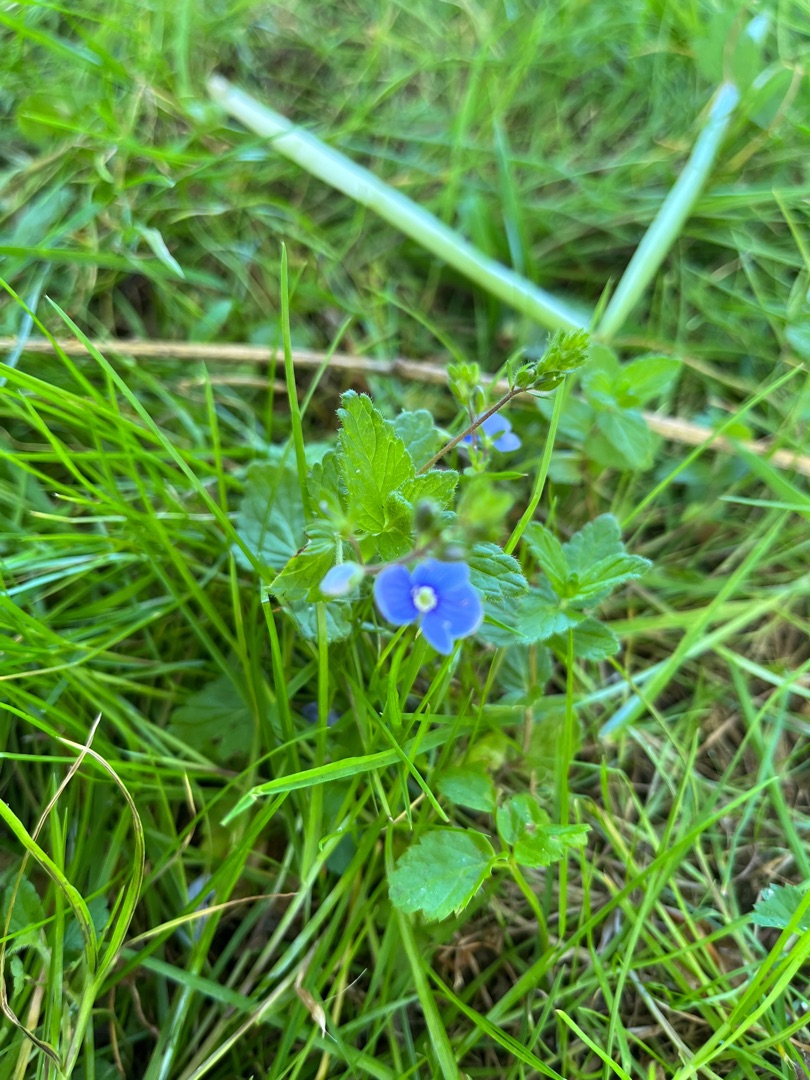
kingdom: Plantae
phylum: Tracheophyta
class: Magnoliopsida
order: Lamiales
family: Plantaginaceae
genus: Veronica
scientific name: Veronica chamaedrys
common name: Tveskægget ærenpris
